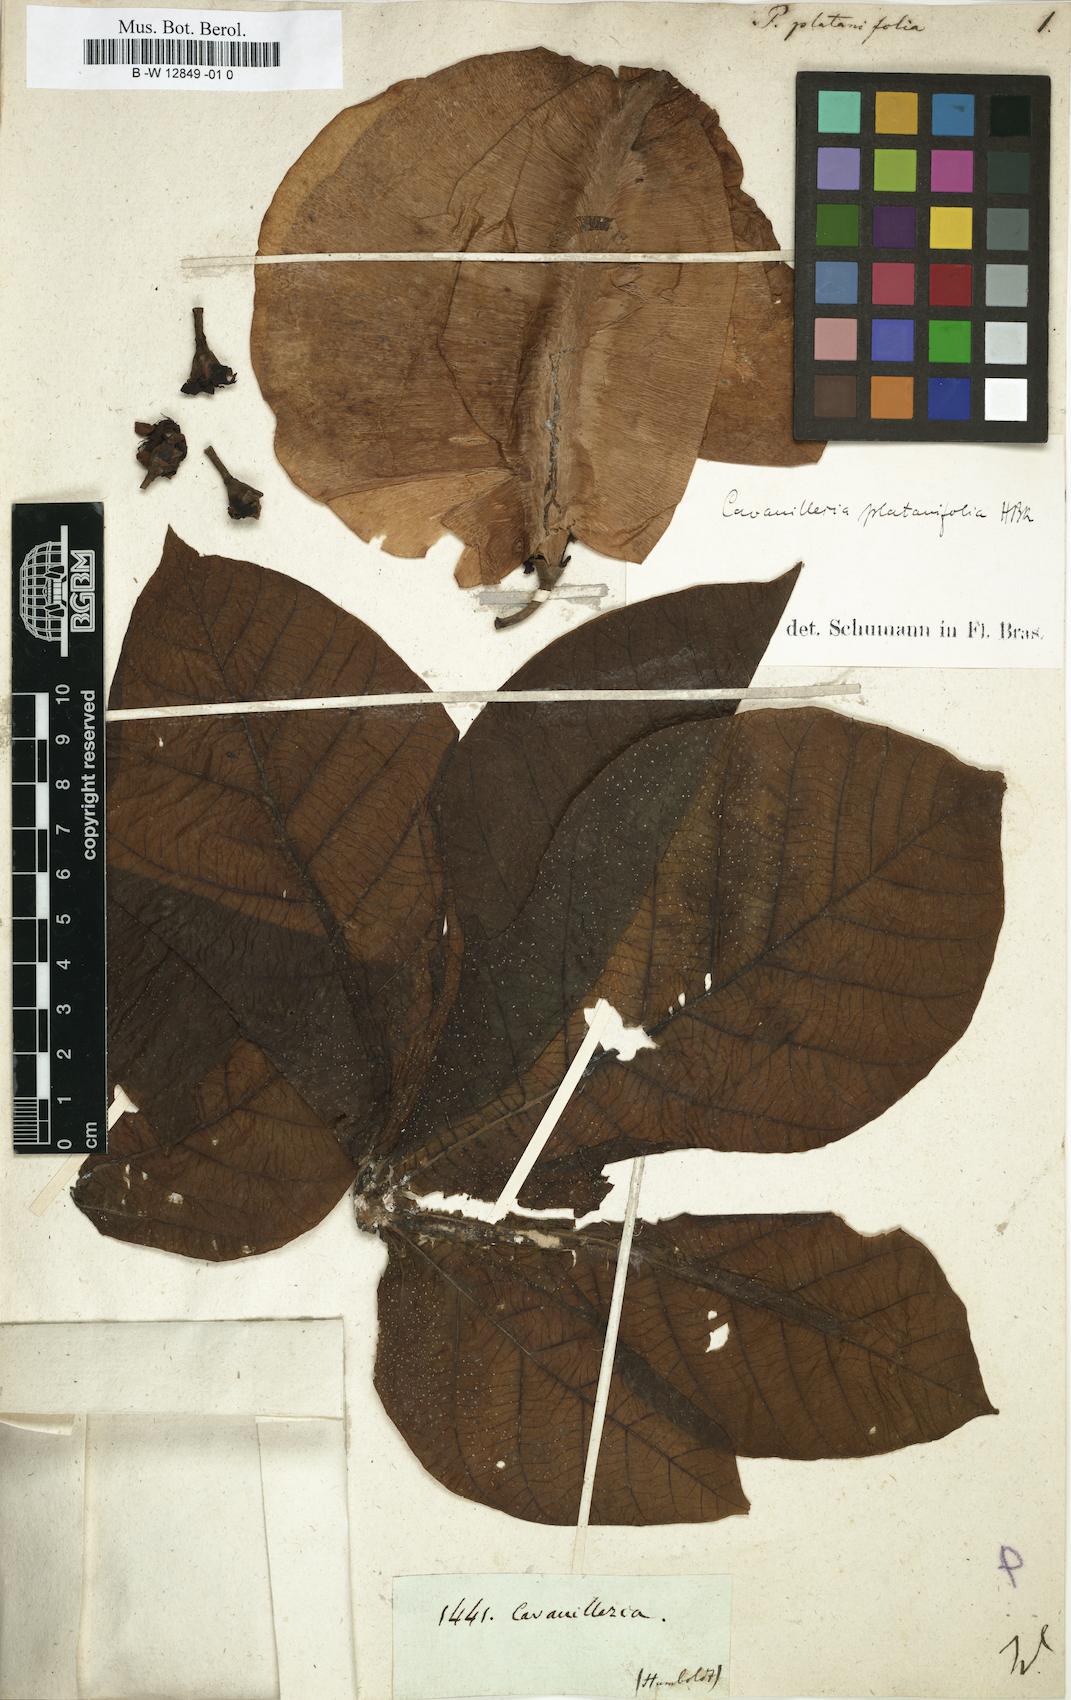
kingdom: Plantae
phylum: Tracheophyta
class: Magnoliopsida
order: Malvales
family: Malvaceae
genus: Cavanillesia
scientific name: Cavanillesia platanifolia
